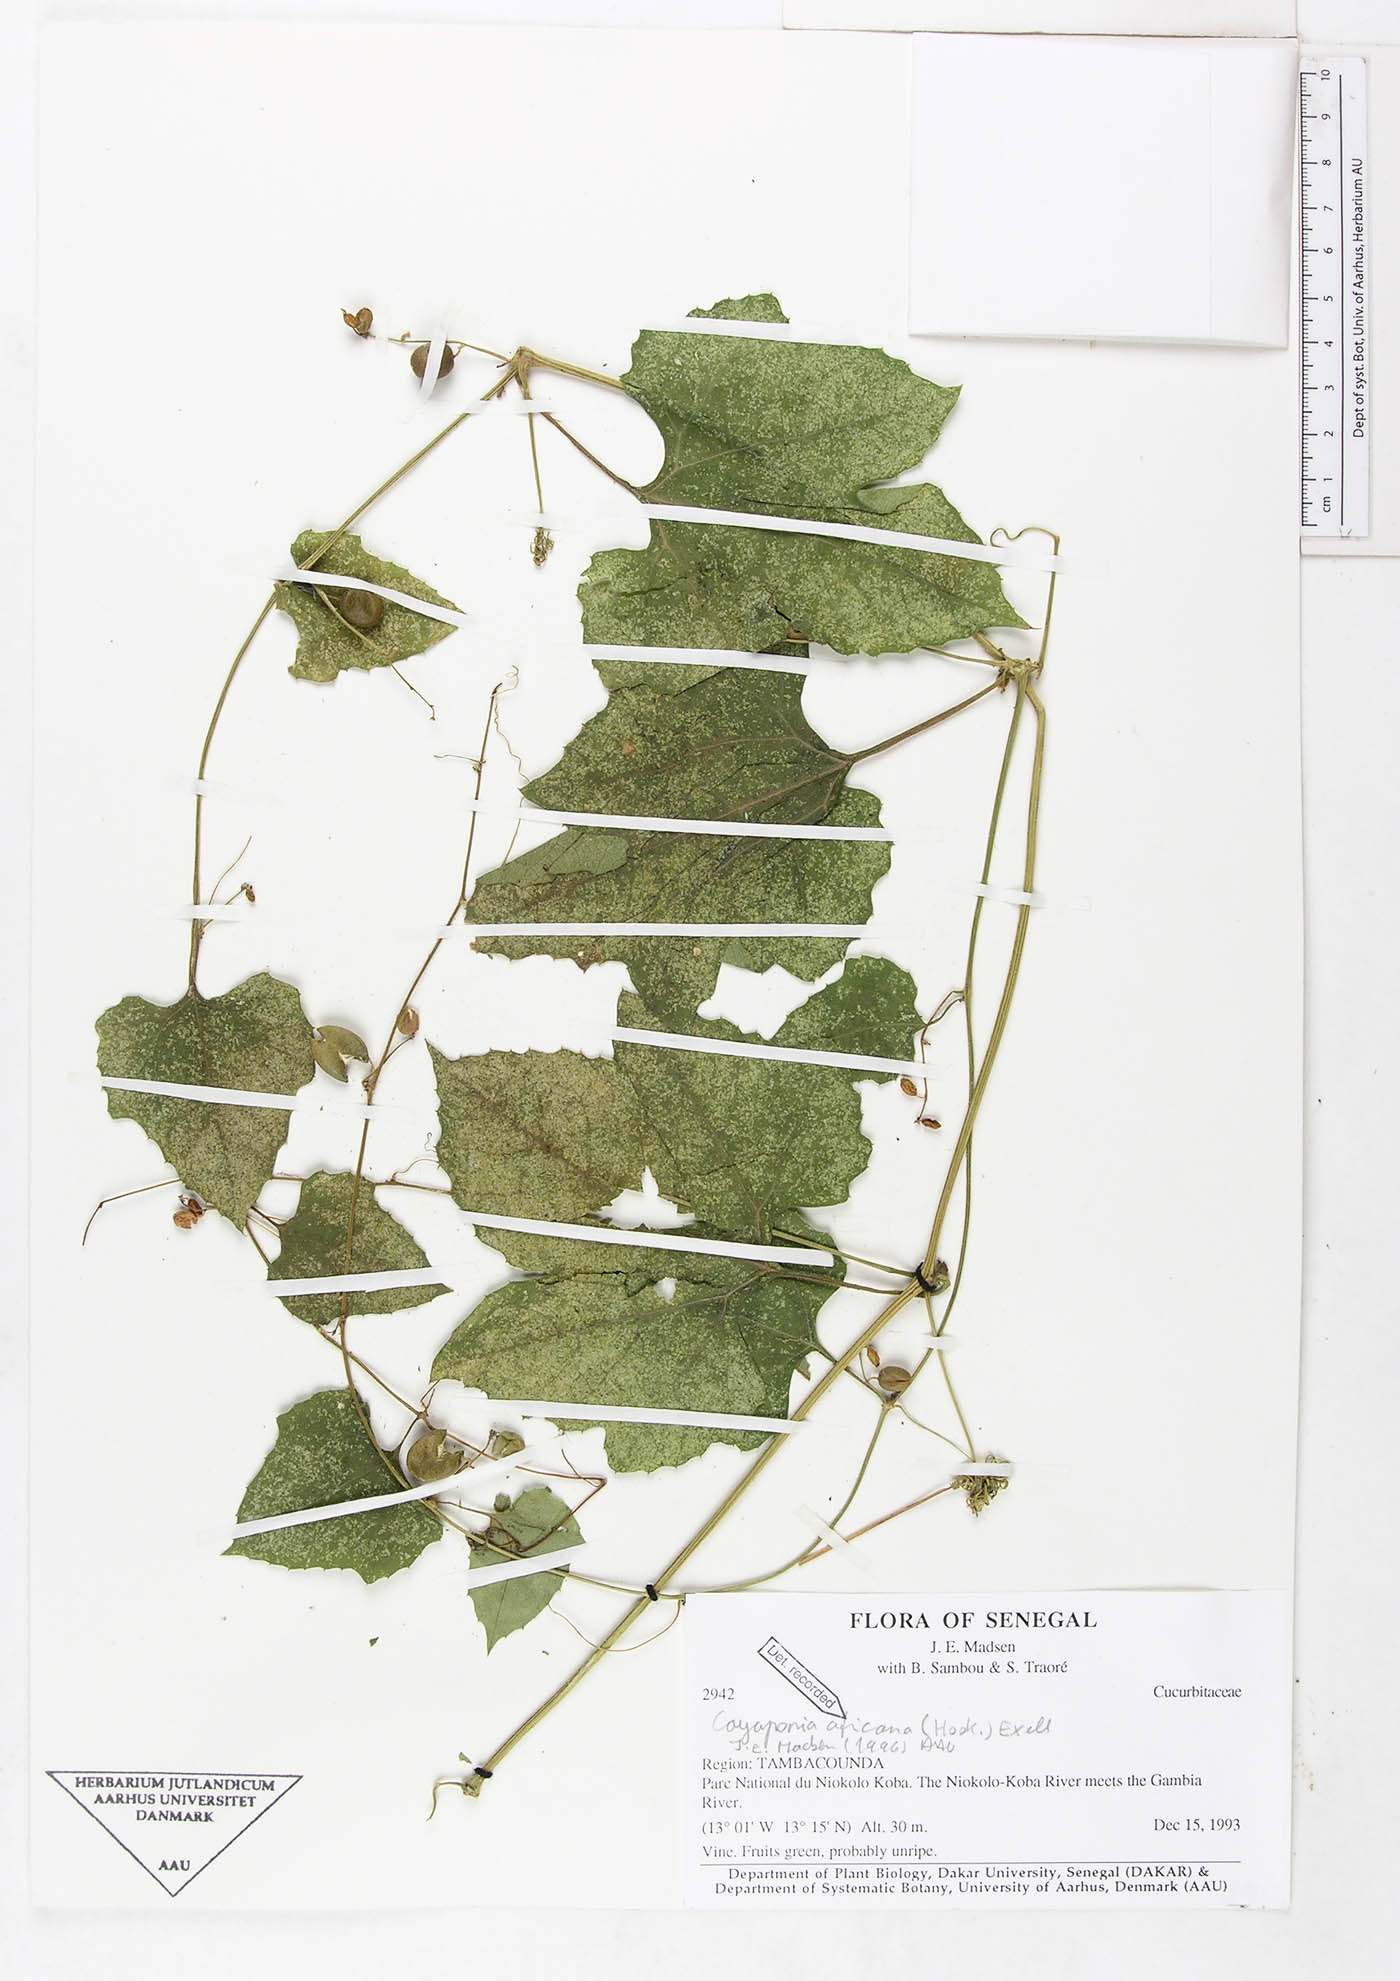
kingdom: Plantae
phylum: Tracheophyta
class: Magnoliopsida
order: Cucurbitales
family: Cucurbitaceae
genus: Cayaponia
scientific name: Cayaponia africana
